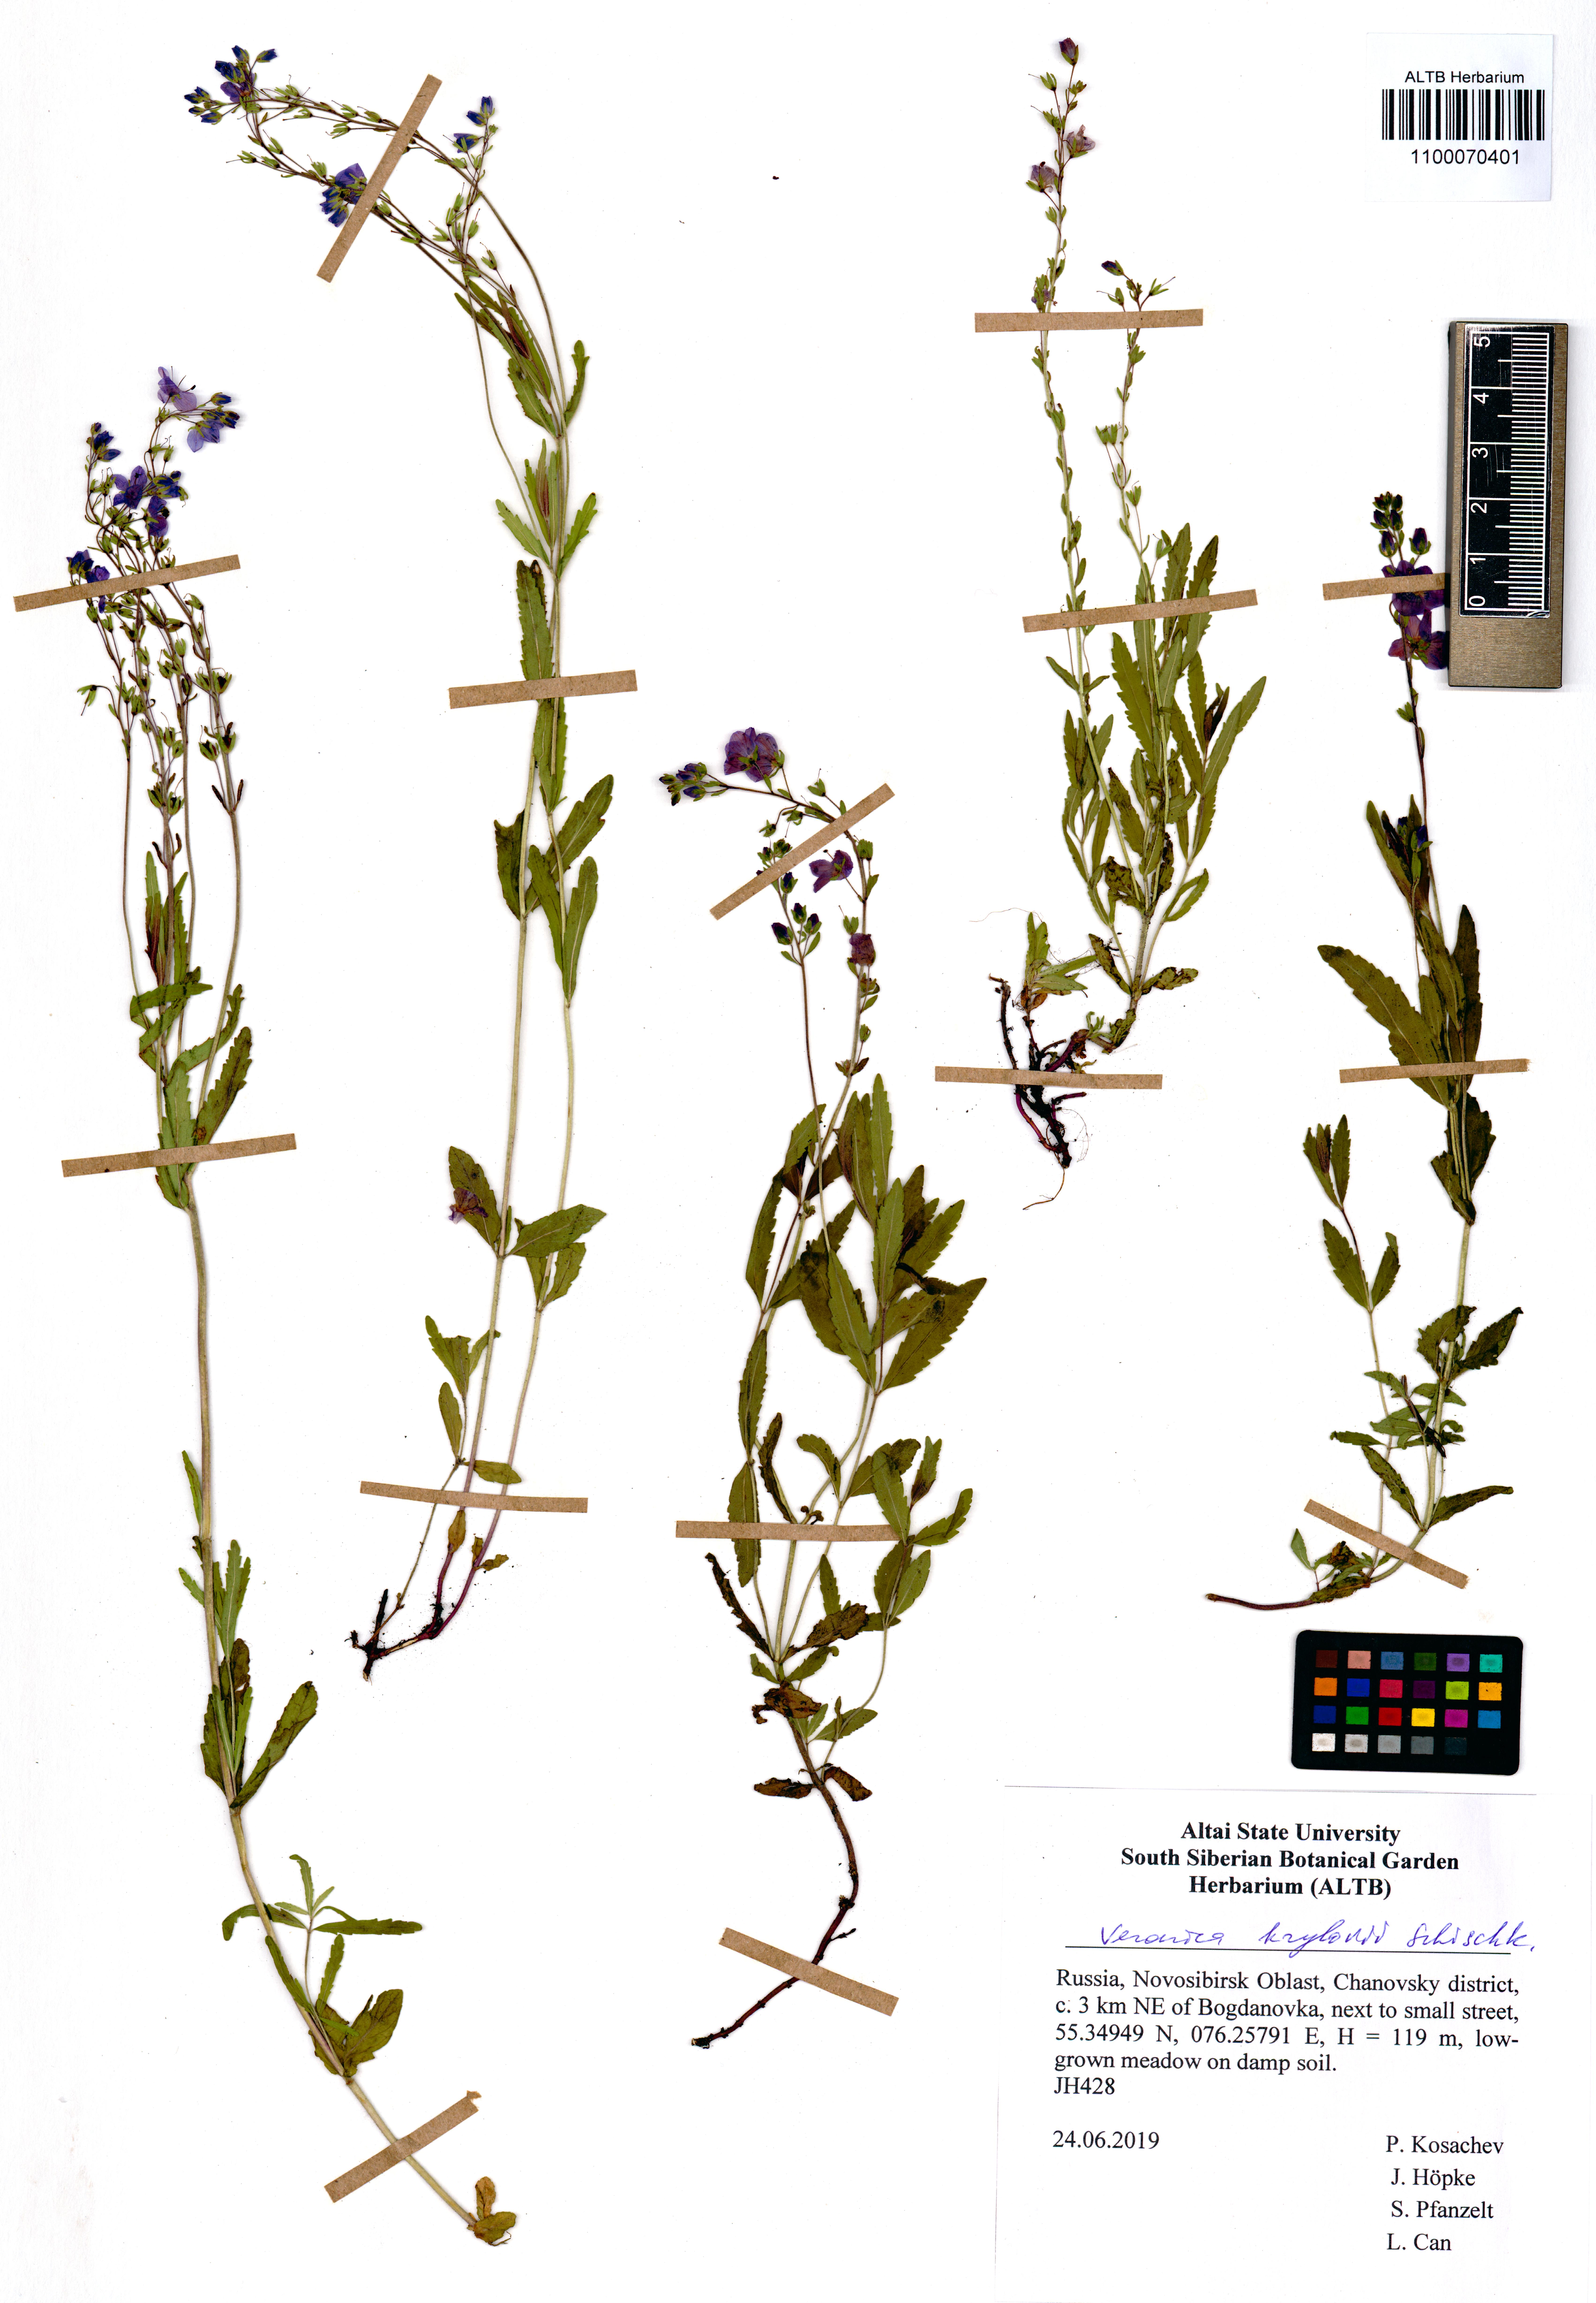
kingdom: Plantae
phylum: Tracheophyta
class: Magnoliopsida
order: Lamiales
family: Plantaginaceae
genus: Veronica
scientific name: Veronica krylovii
